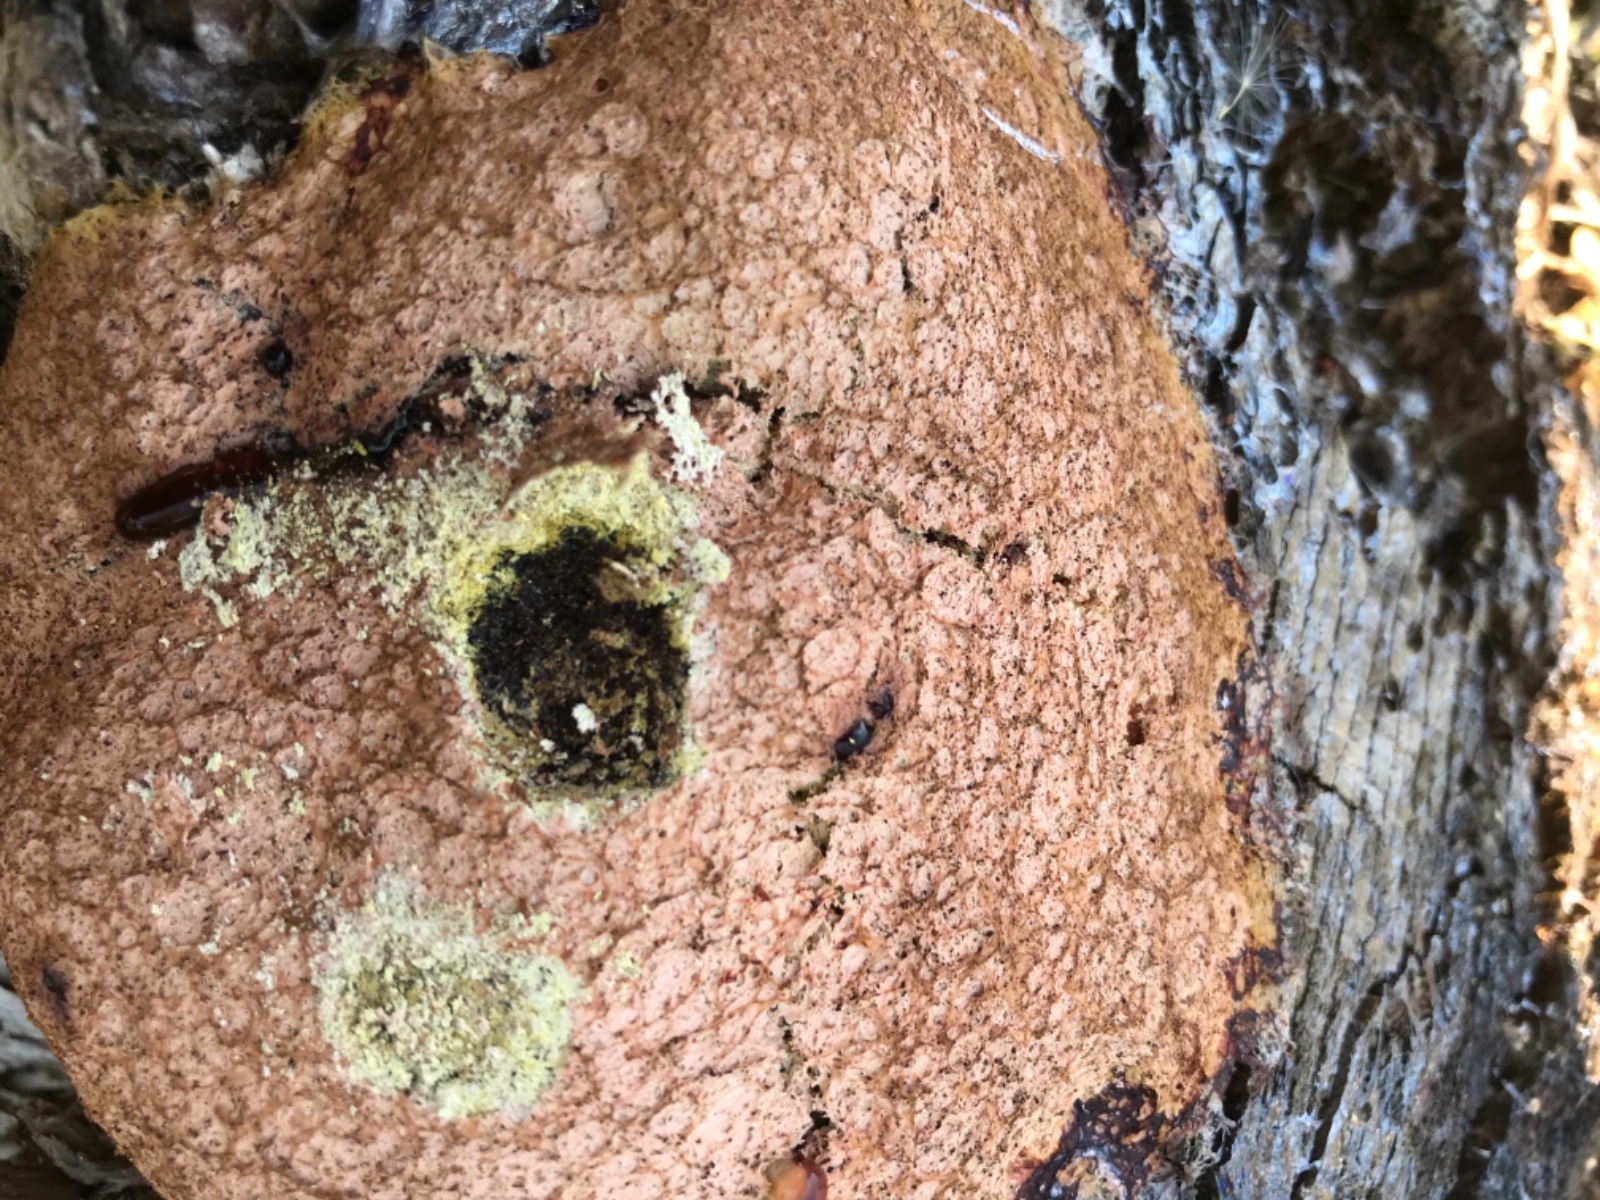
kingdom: Protozoa
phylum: Mycetozoa
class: Myxomycetes
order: Physarales
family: Physaraceae
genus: Fuligo
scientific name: Fuligo septica
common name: Dog vomit slime mold
